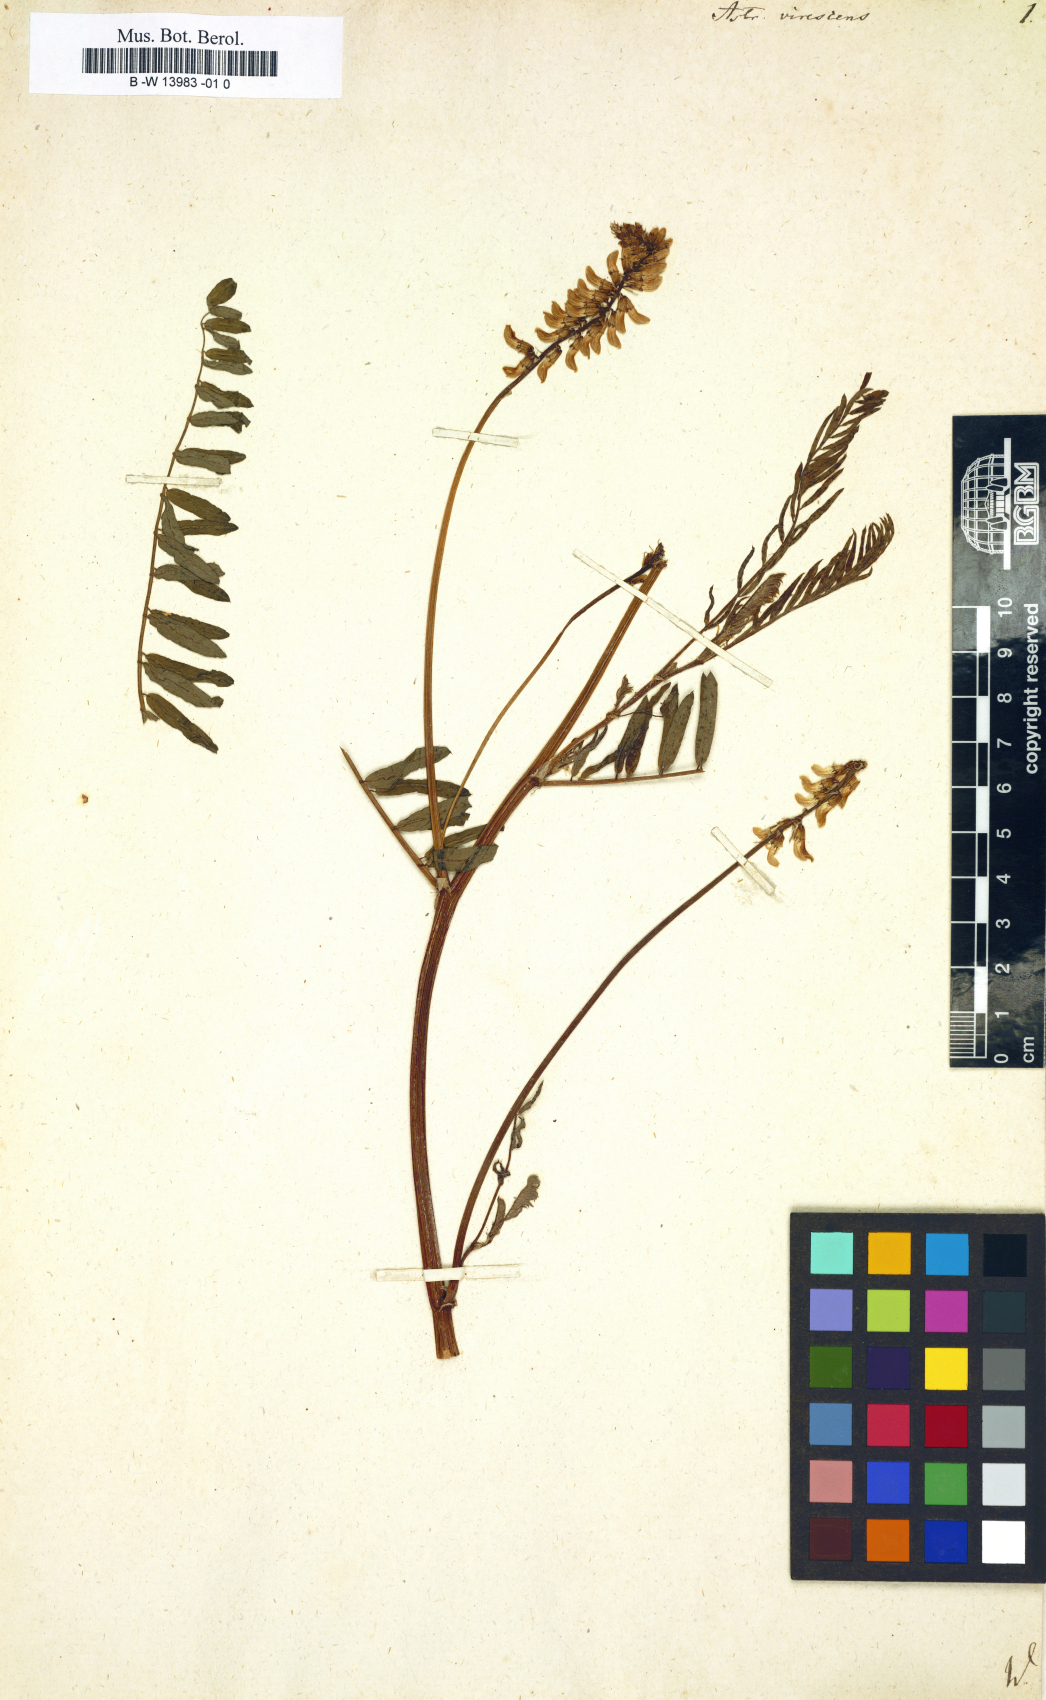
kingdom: Plantae
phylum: Tracheophyta
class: Magnoliopsida
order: Fabales
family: Fabaceae
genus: Astragalus
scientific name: Astragalus falcatus
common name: Russian sickle milk-vetch
